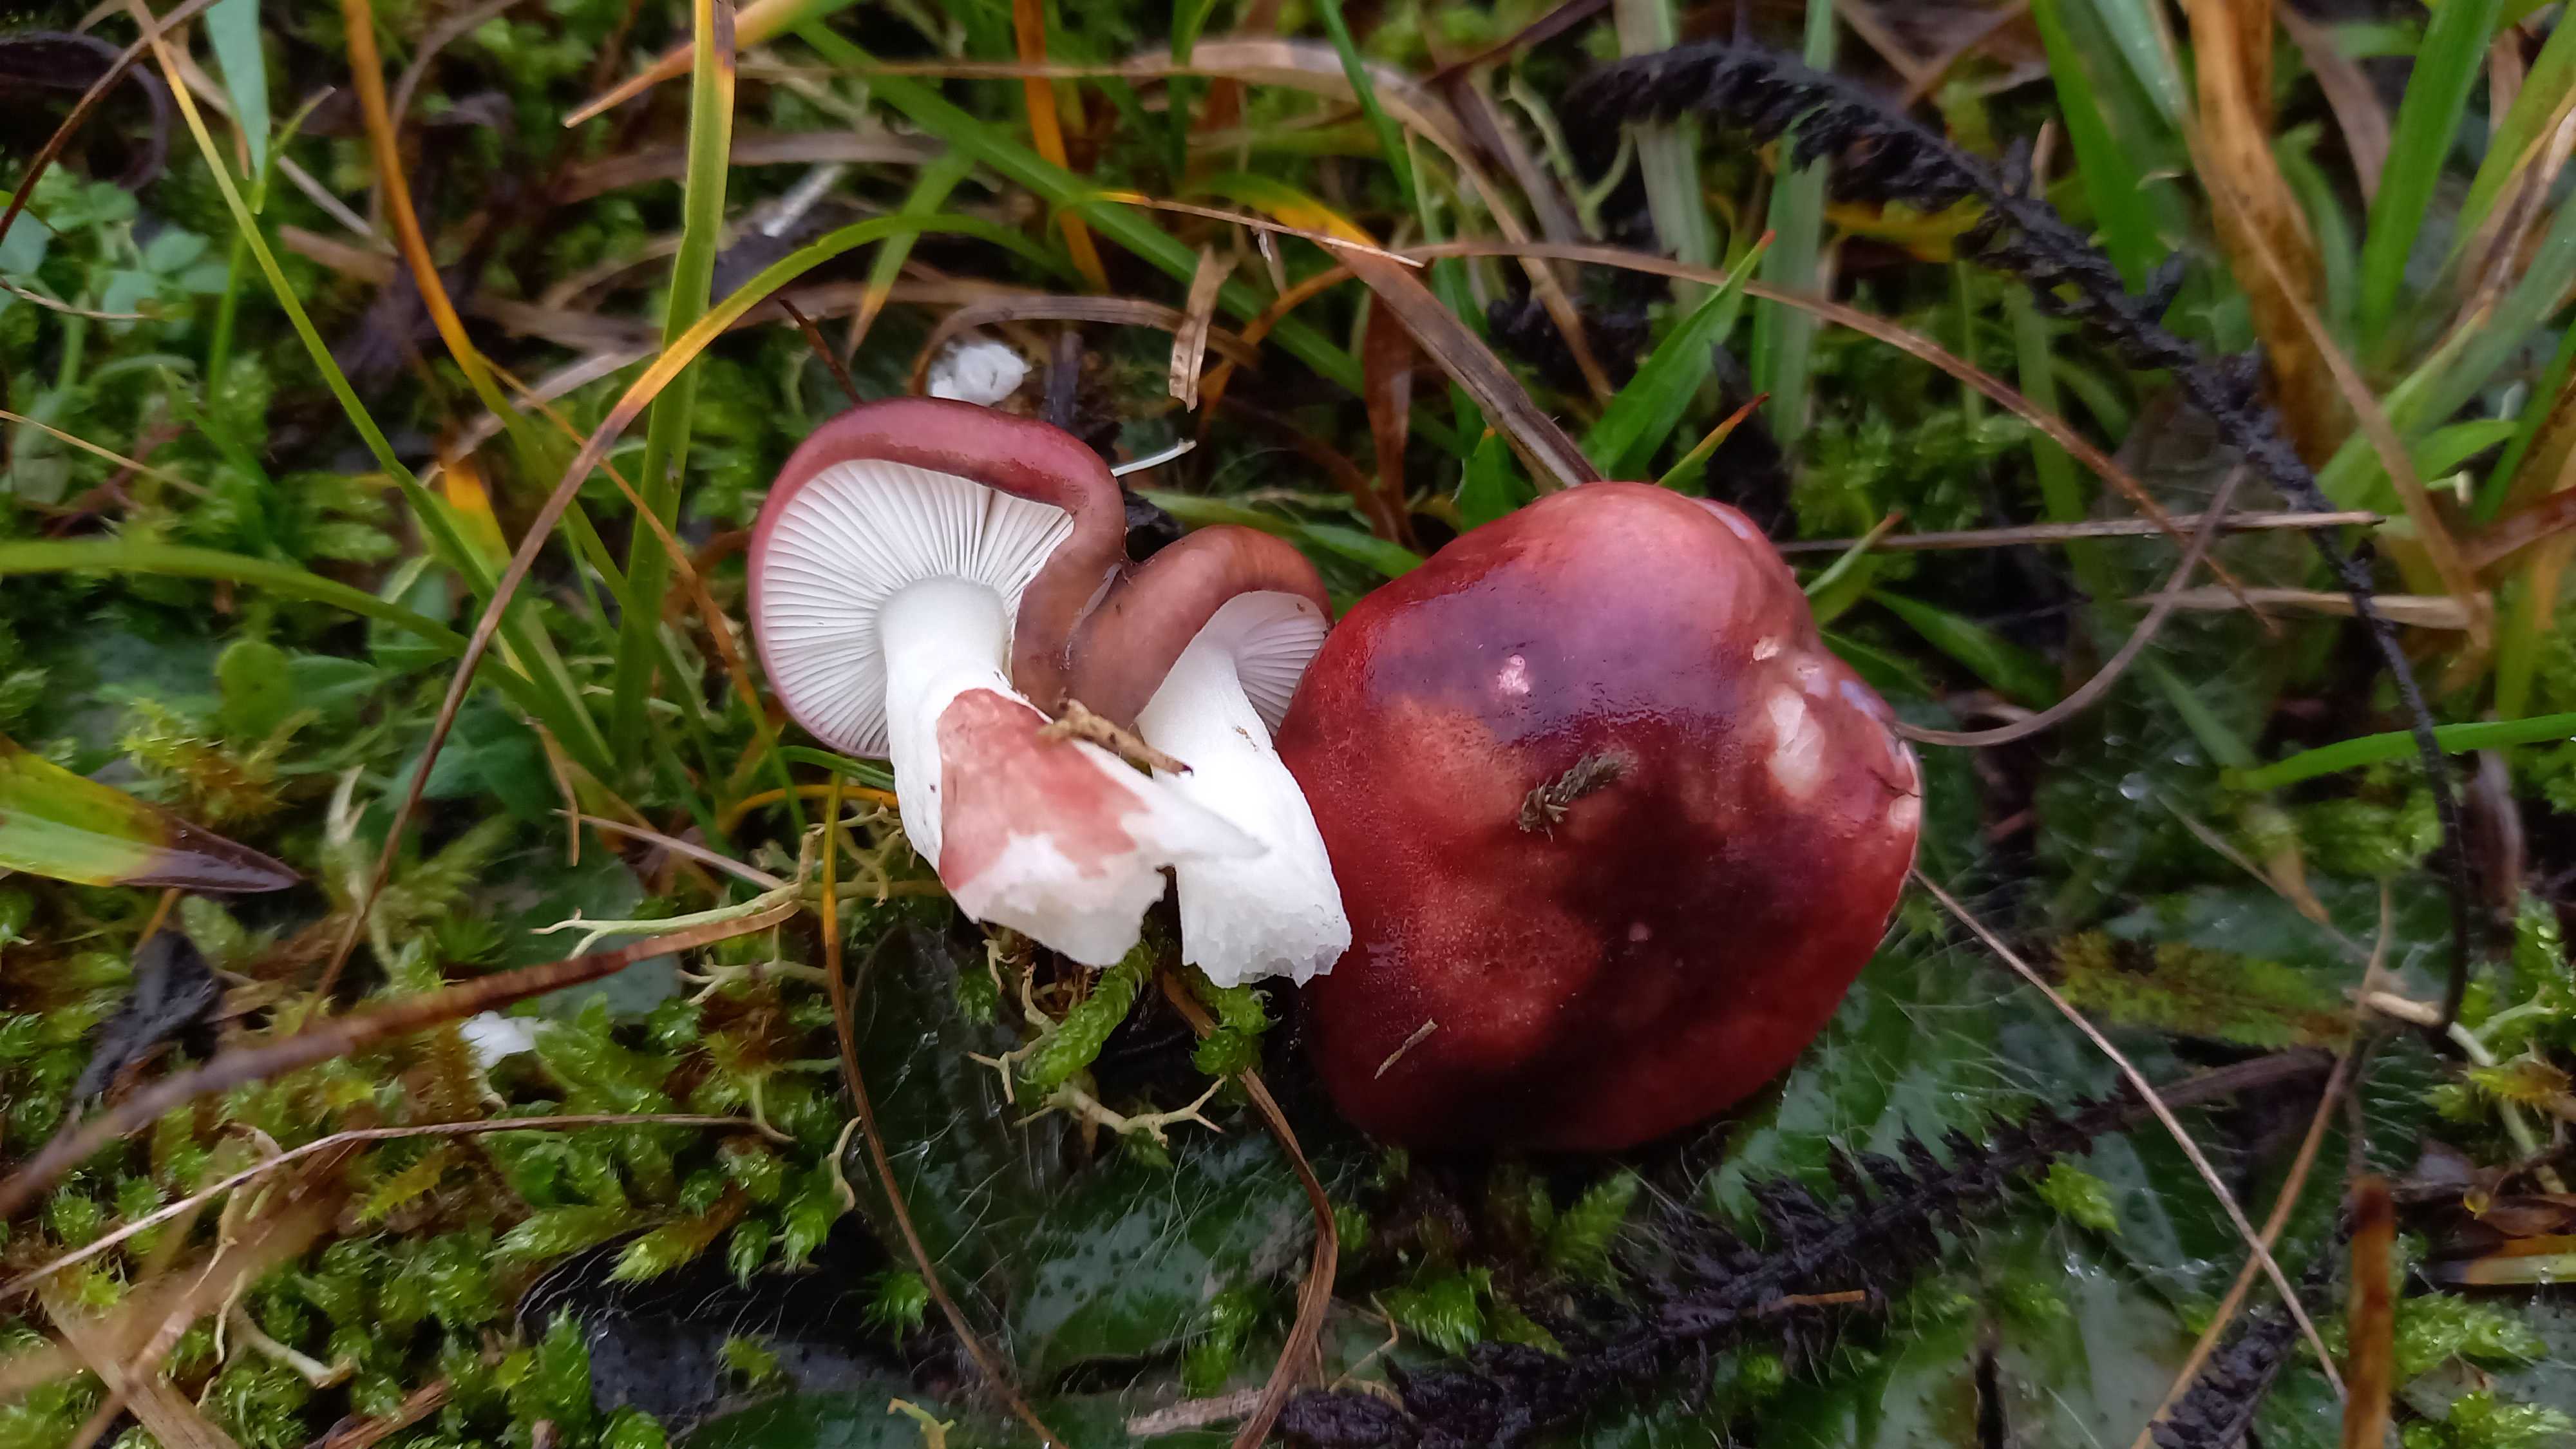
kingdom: Fungi
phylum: Basidiomycota
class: Agaricomycetes
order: Russulales
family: Russulaceae
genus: Russula
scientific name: Russula laccata
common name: klit-skørhat
